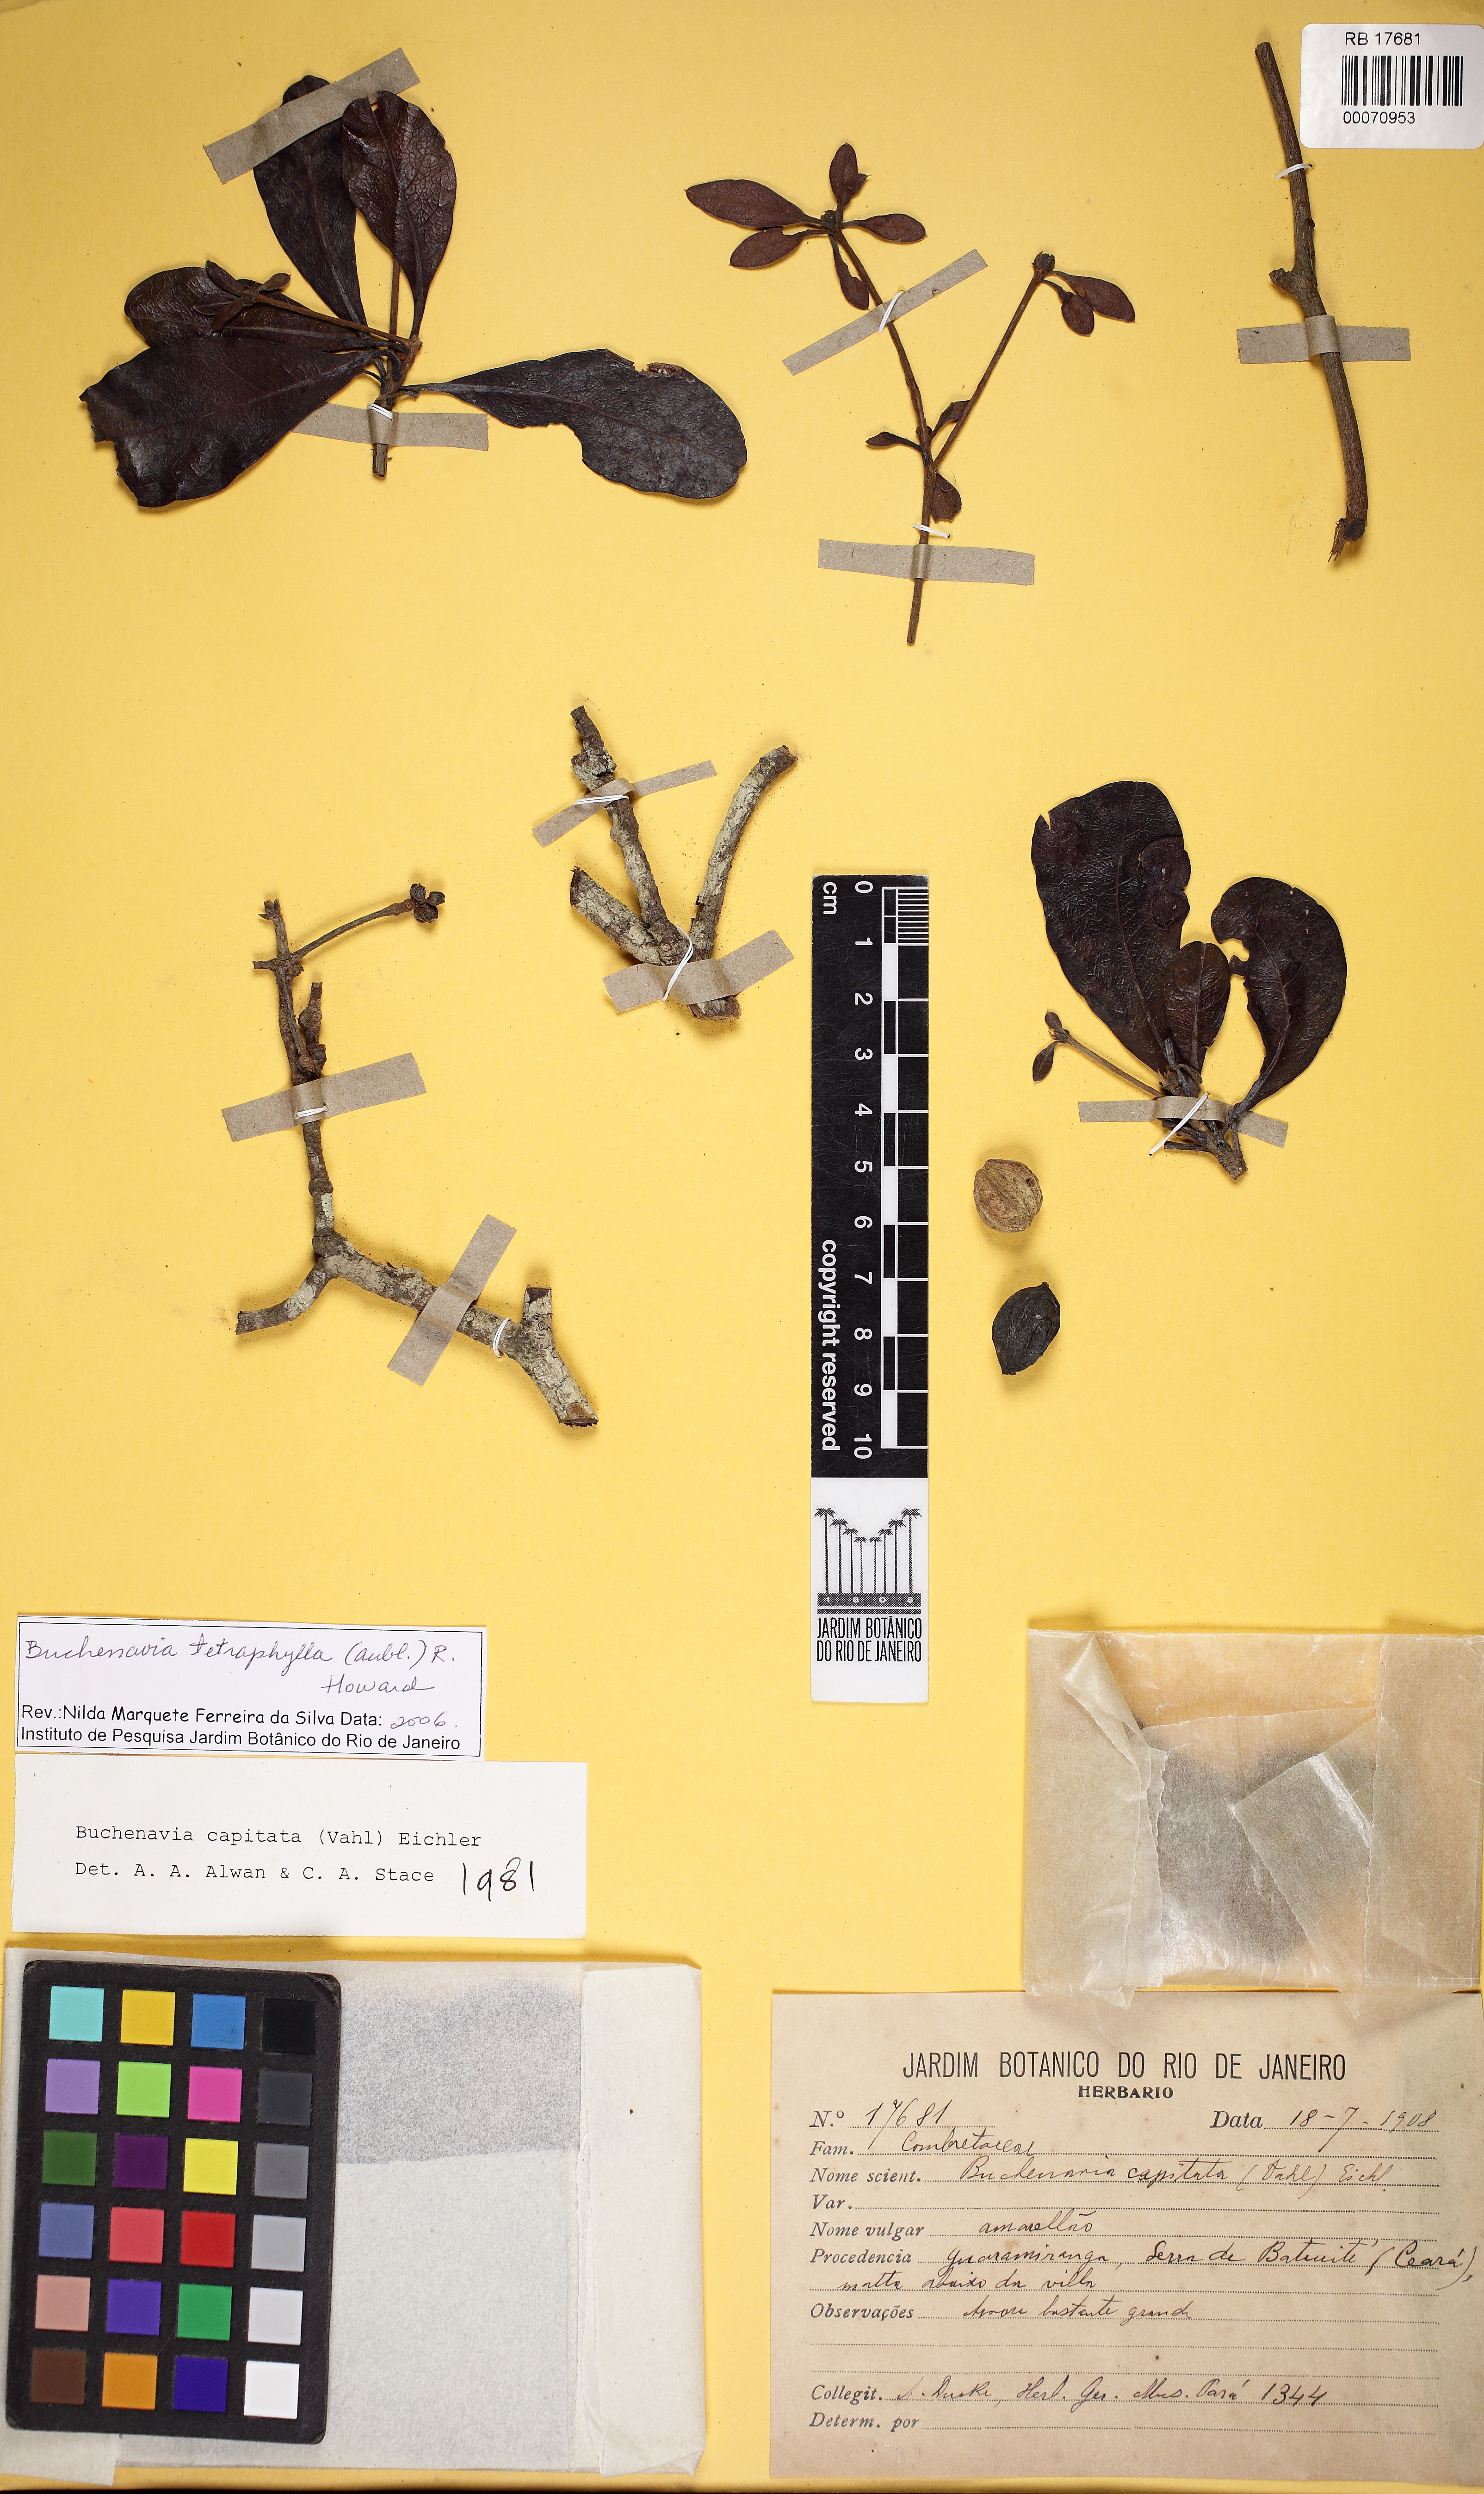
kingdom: Plantae
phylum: Tracheophyta
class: Magnoliopsida
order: Myrtales
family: Combretaceae
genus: Terminalia
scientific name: Terminalia tetraphylla
